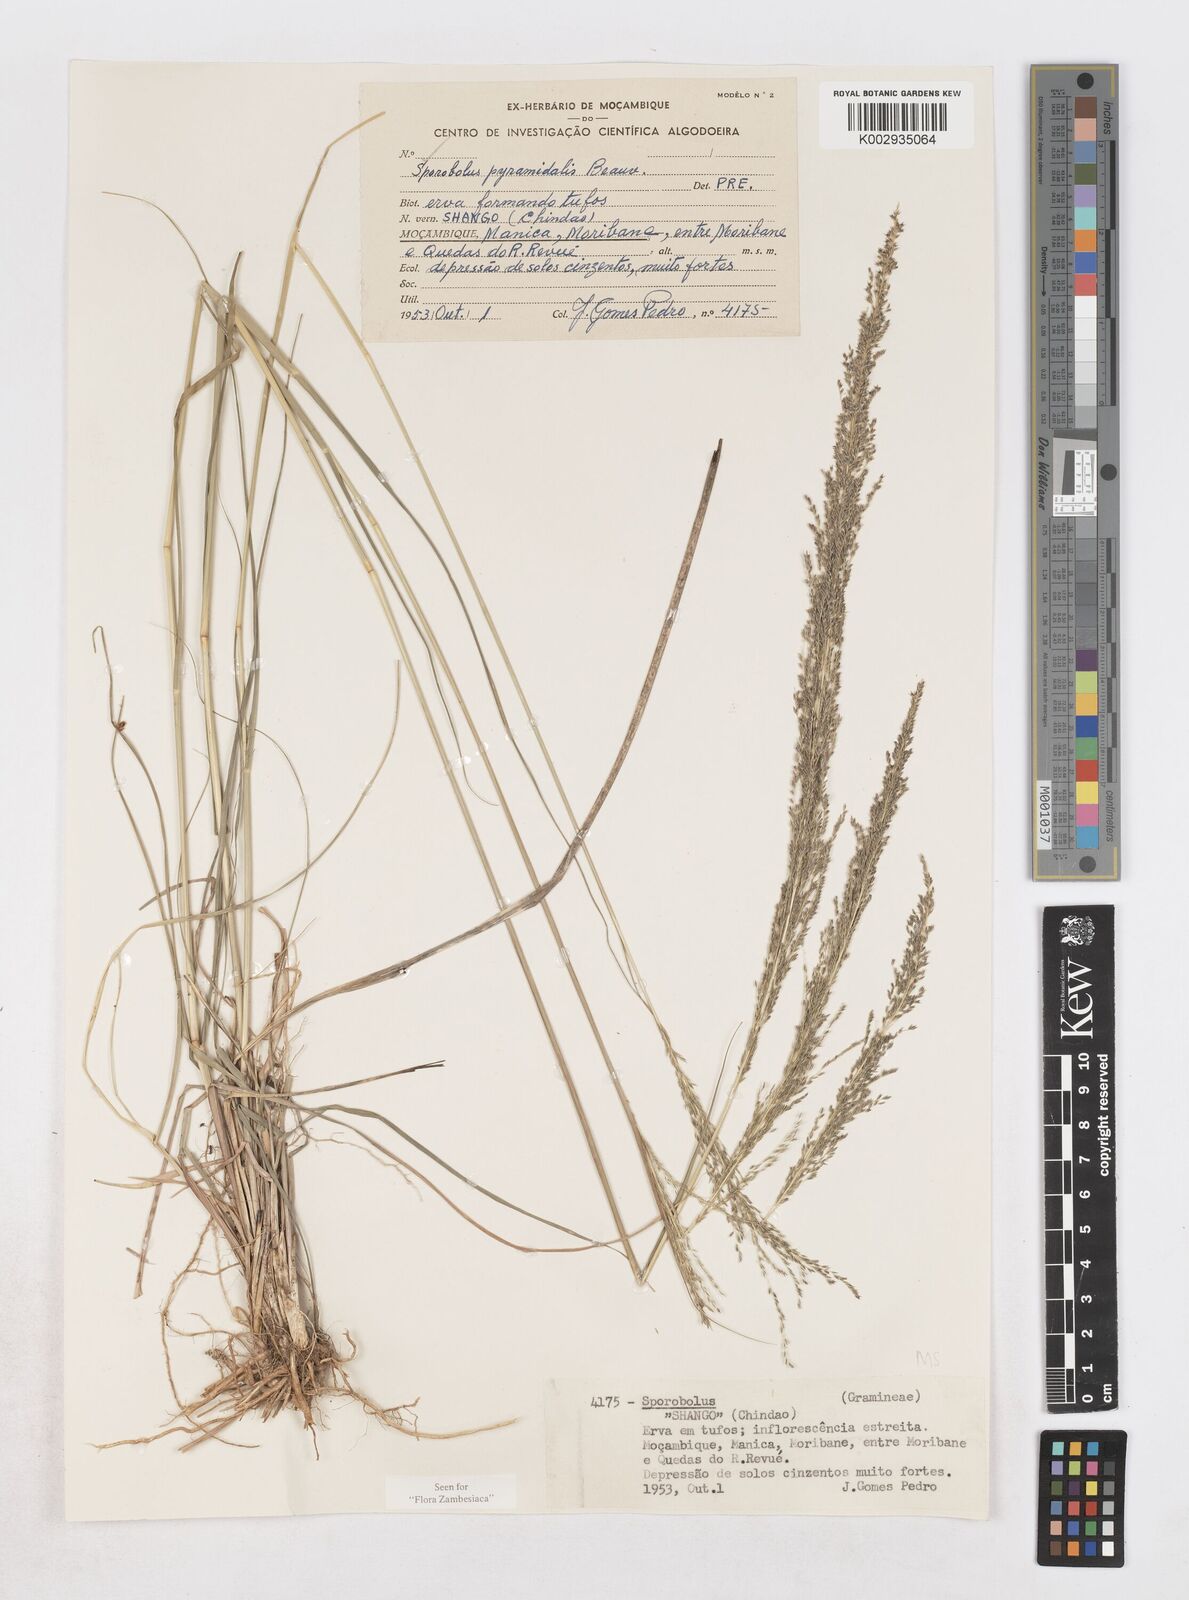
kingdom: Plantae
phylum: Tracheophyta
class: Liliopsida
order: Poales
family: Poaceae
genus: Sporobolus
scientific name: Sporobolus pyramidalis
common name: West indian dropseed
